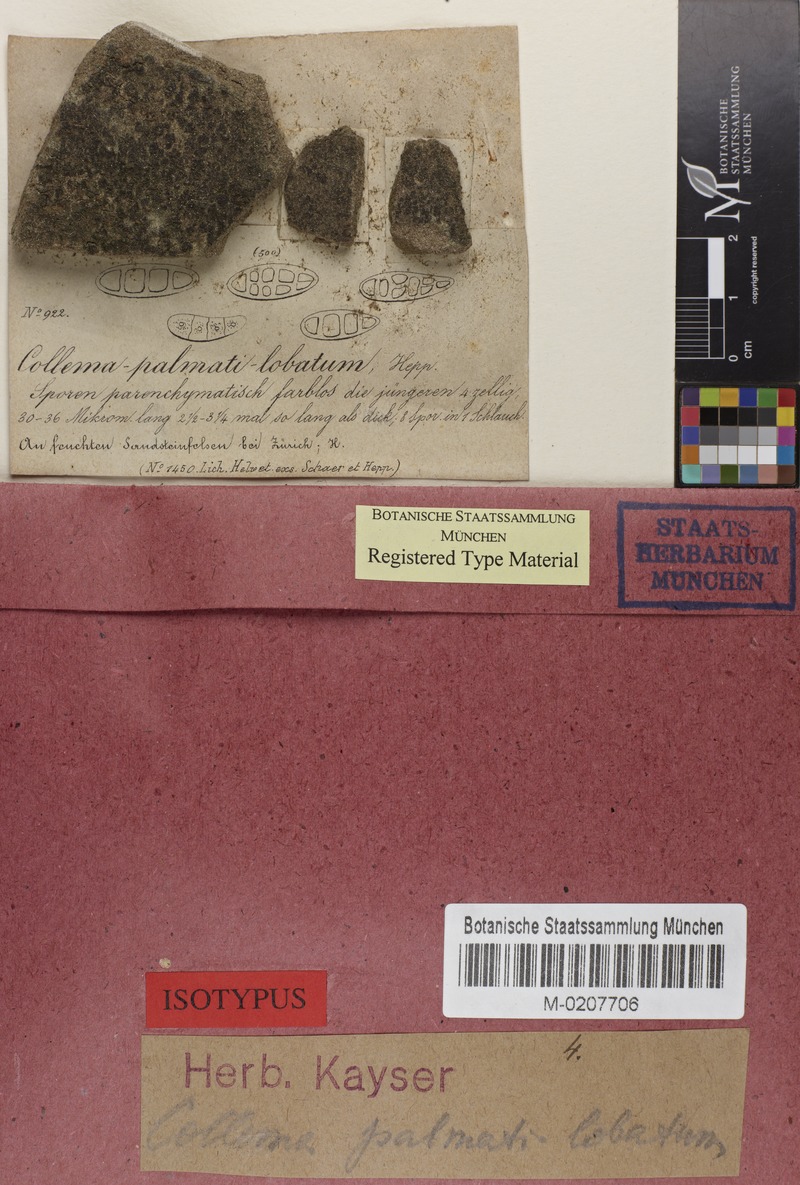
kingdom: Fungi
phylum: Ascomycota
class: Lecanoromycetes
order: Peltigerales
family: Collemataceae
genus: Blennothallia
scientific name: Blennothallia crispa
